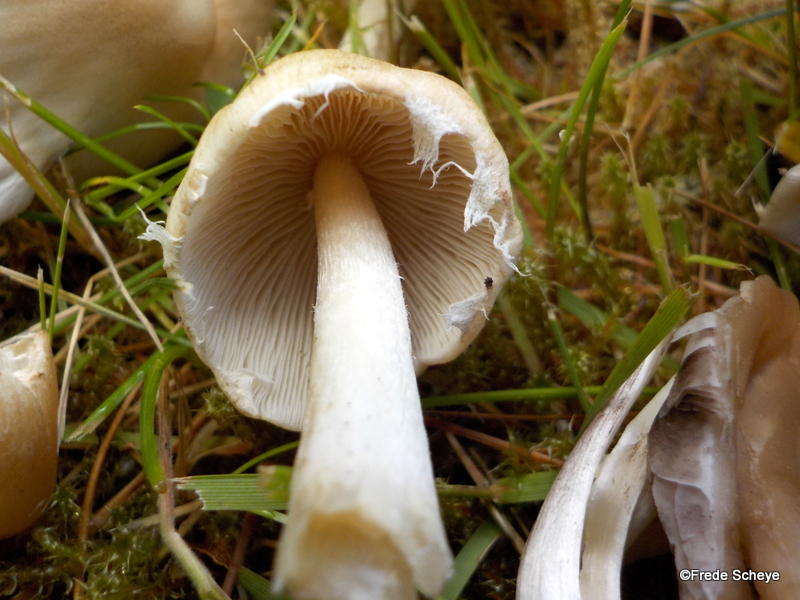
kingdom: Fungi
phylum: Basidiomycota
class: Agaricomycetes
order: Agaricales
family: Psathyrellaceae
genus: Candolleomyces
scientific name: Candolleomyces candolleanus
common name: Candolles mørkhat
